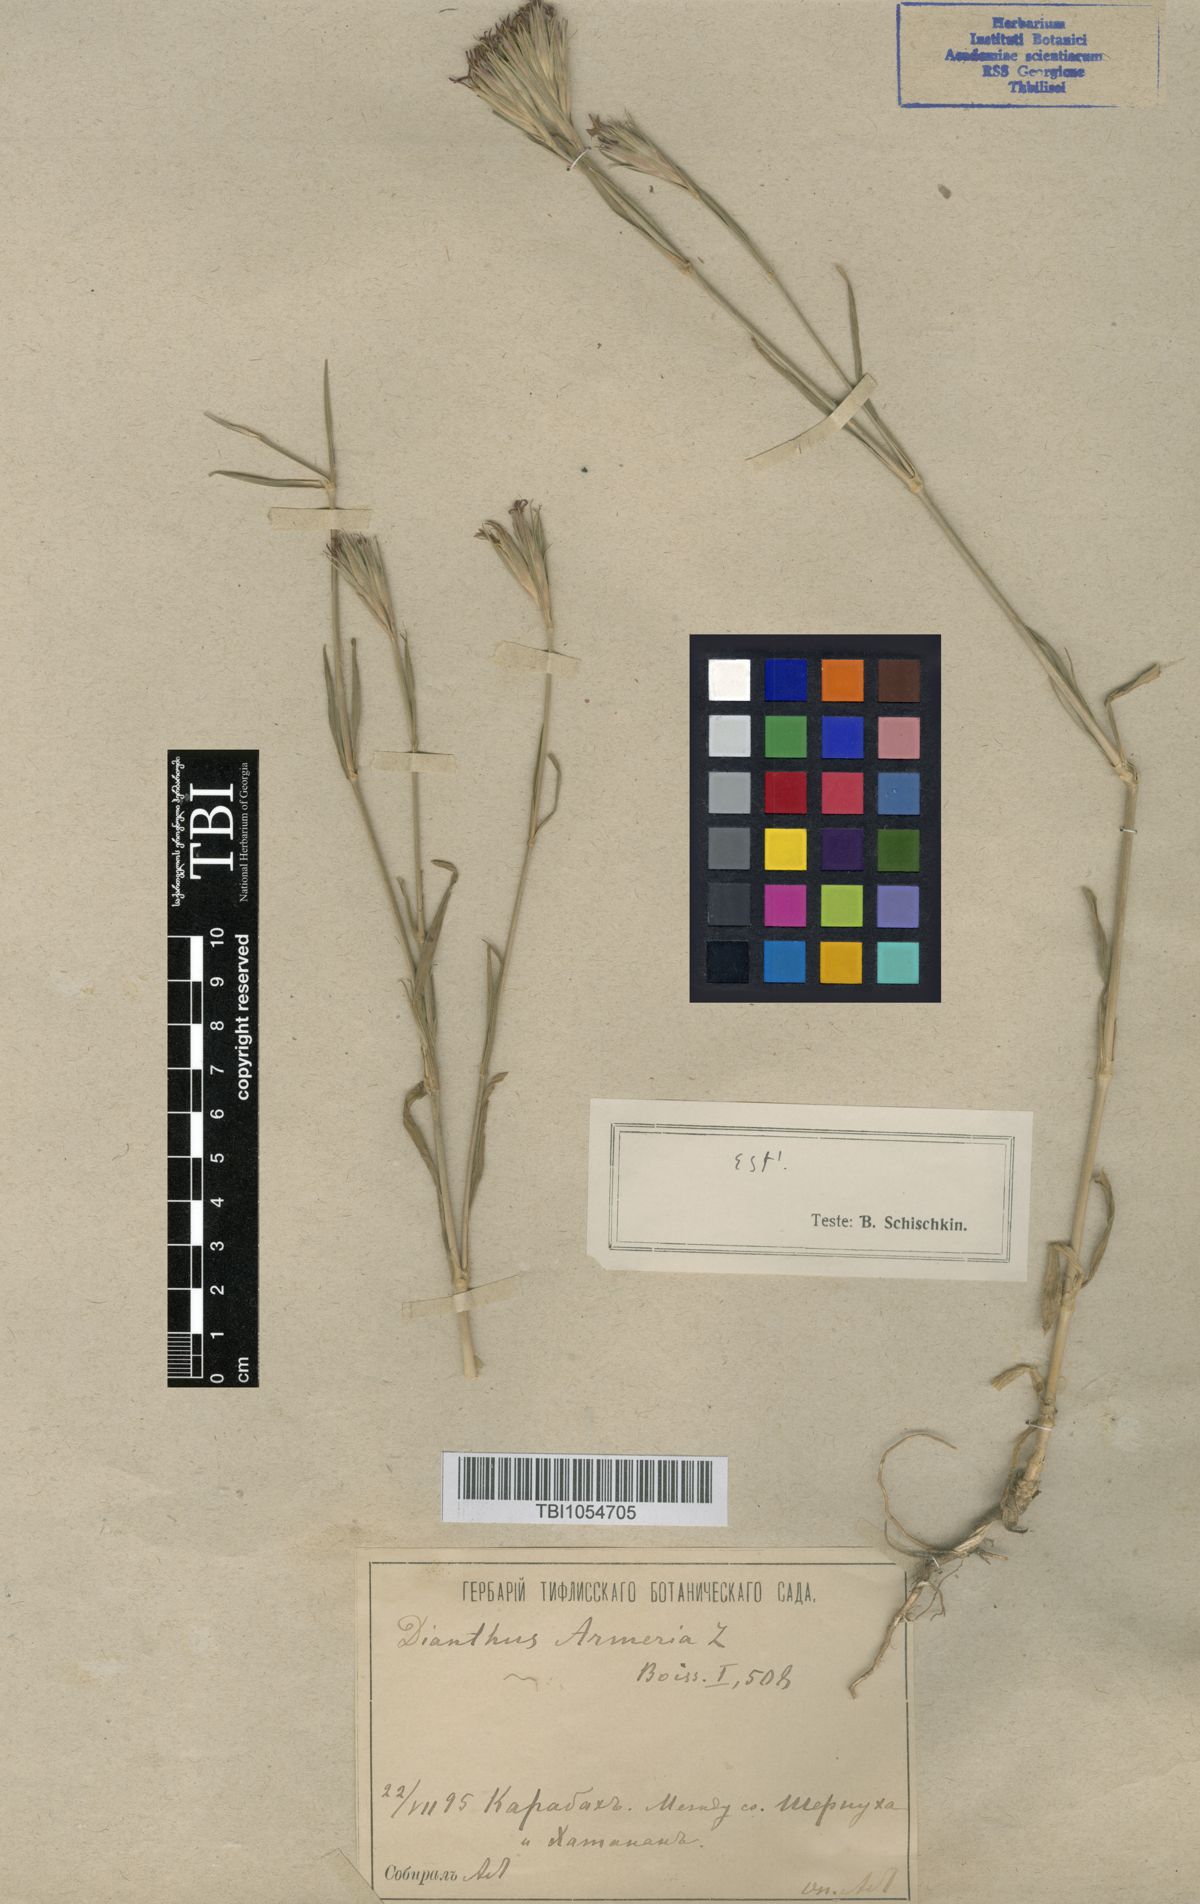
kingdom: Plantae
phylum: Tracheophyta
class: Magnoliopsida
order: Caryophyllales
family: Caryophyllaceae
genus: Dianthus
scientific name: Dianthus armeria
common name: Deptford pink
